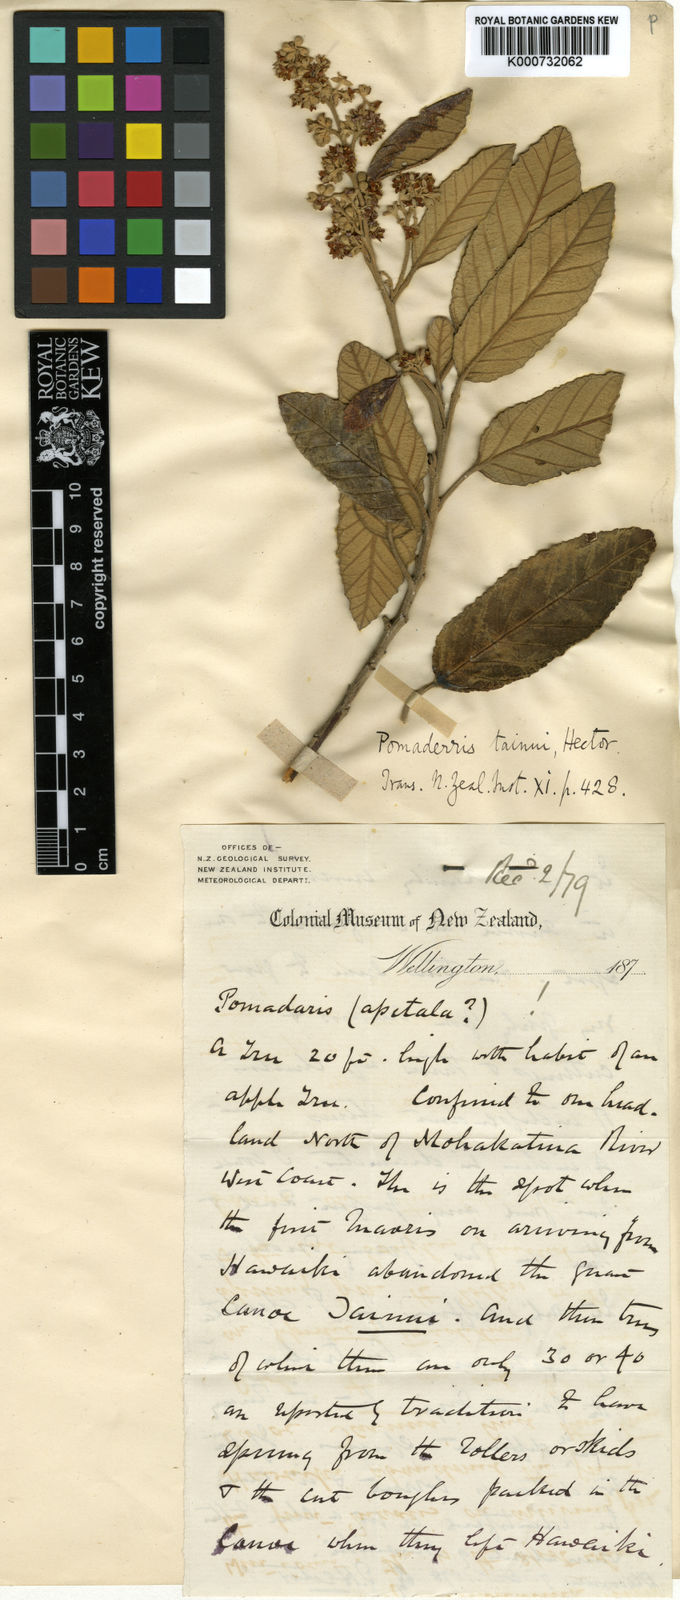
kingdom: Plantae
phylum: Tracheophyta
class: Magnoliopsida
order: Rosales
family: Rhamnaceae
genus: Pomaderris
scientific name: Pomaderris apetala
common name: Hazel pomaderris
